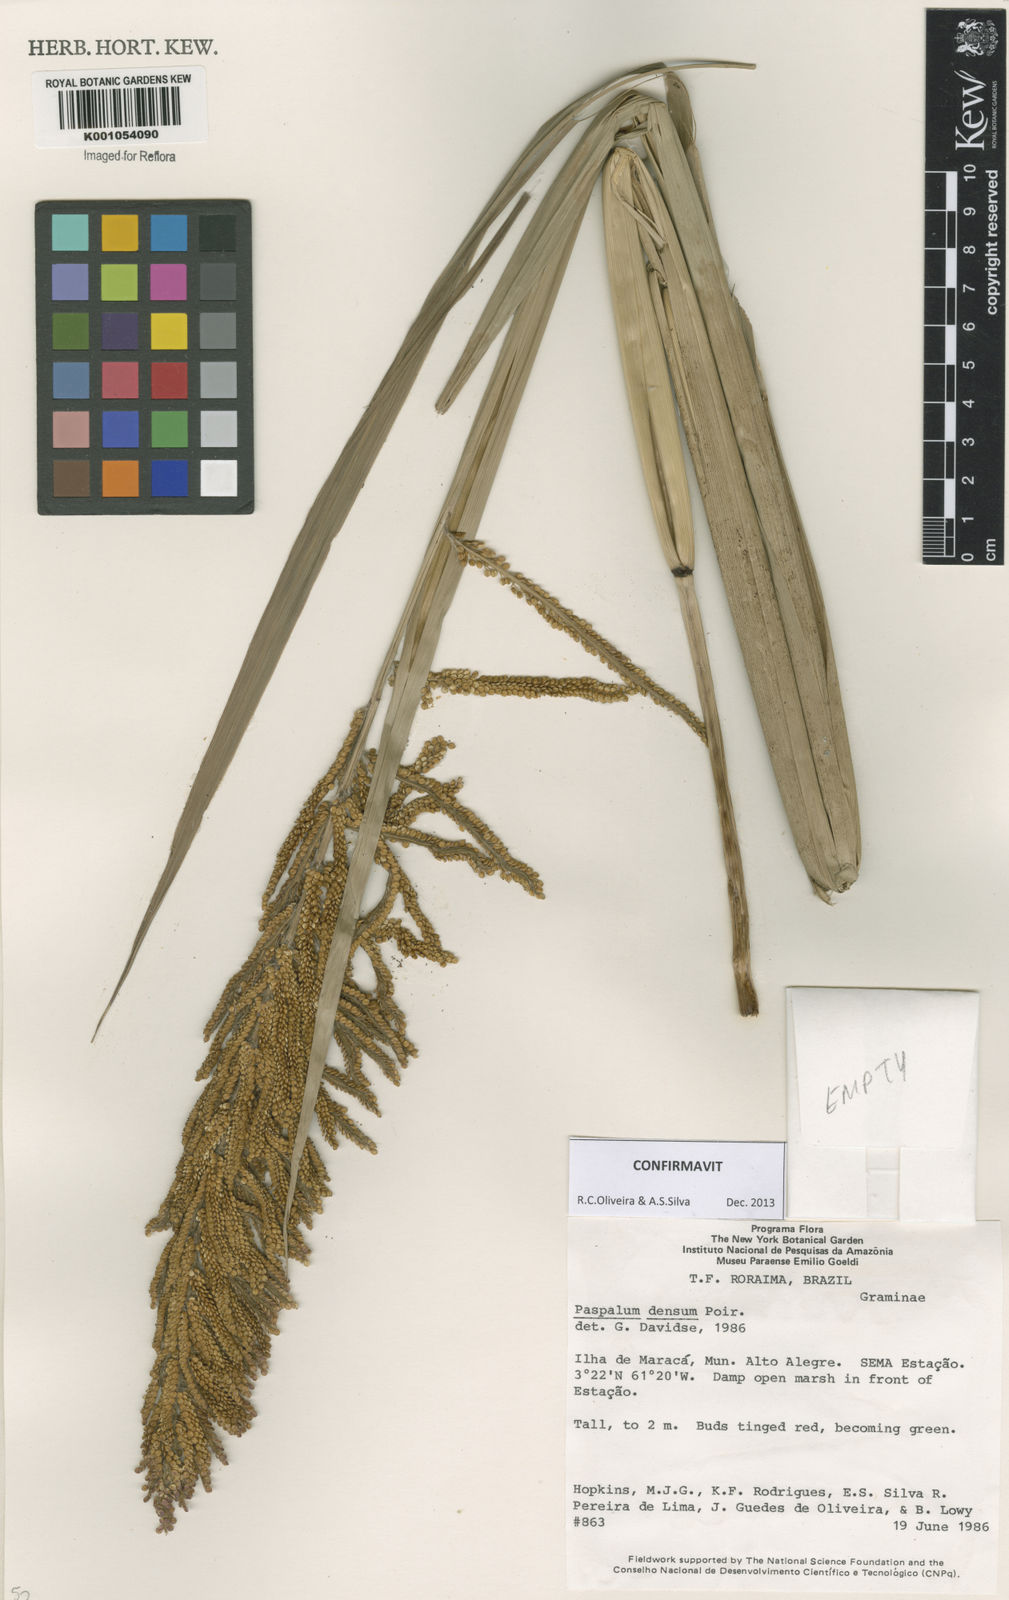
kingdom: Plantae
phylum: Tracheophyta
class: Liliopsida
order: Poales
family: Poaceae
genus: Paspalum
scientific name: Paspalum densum
